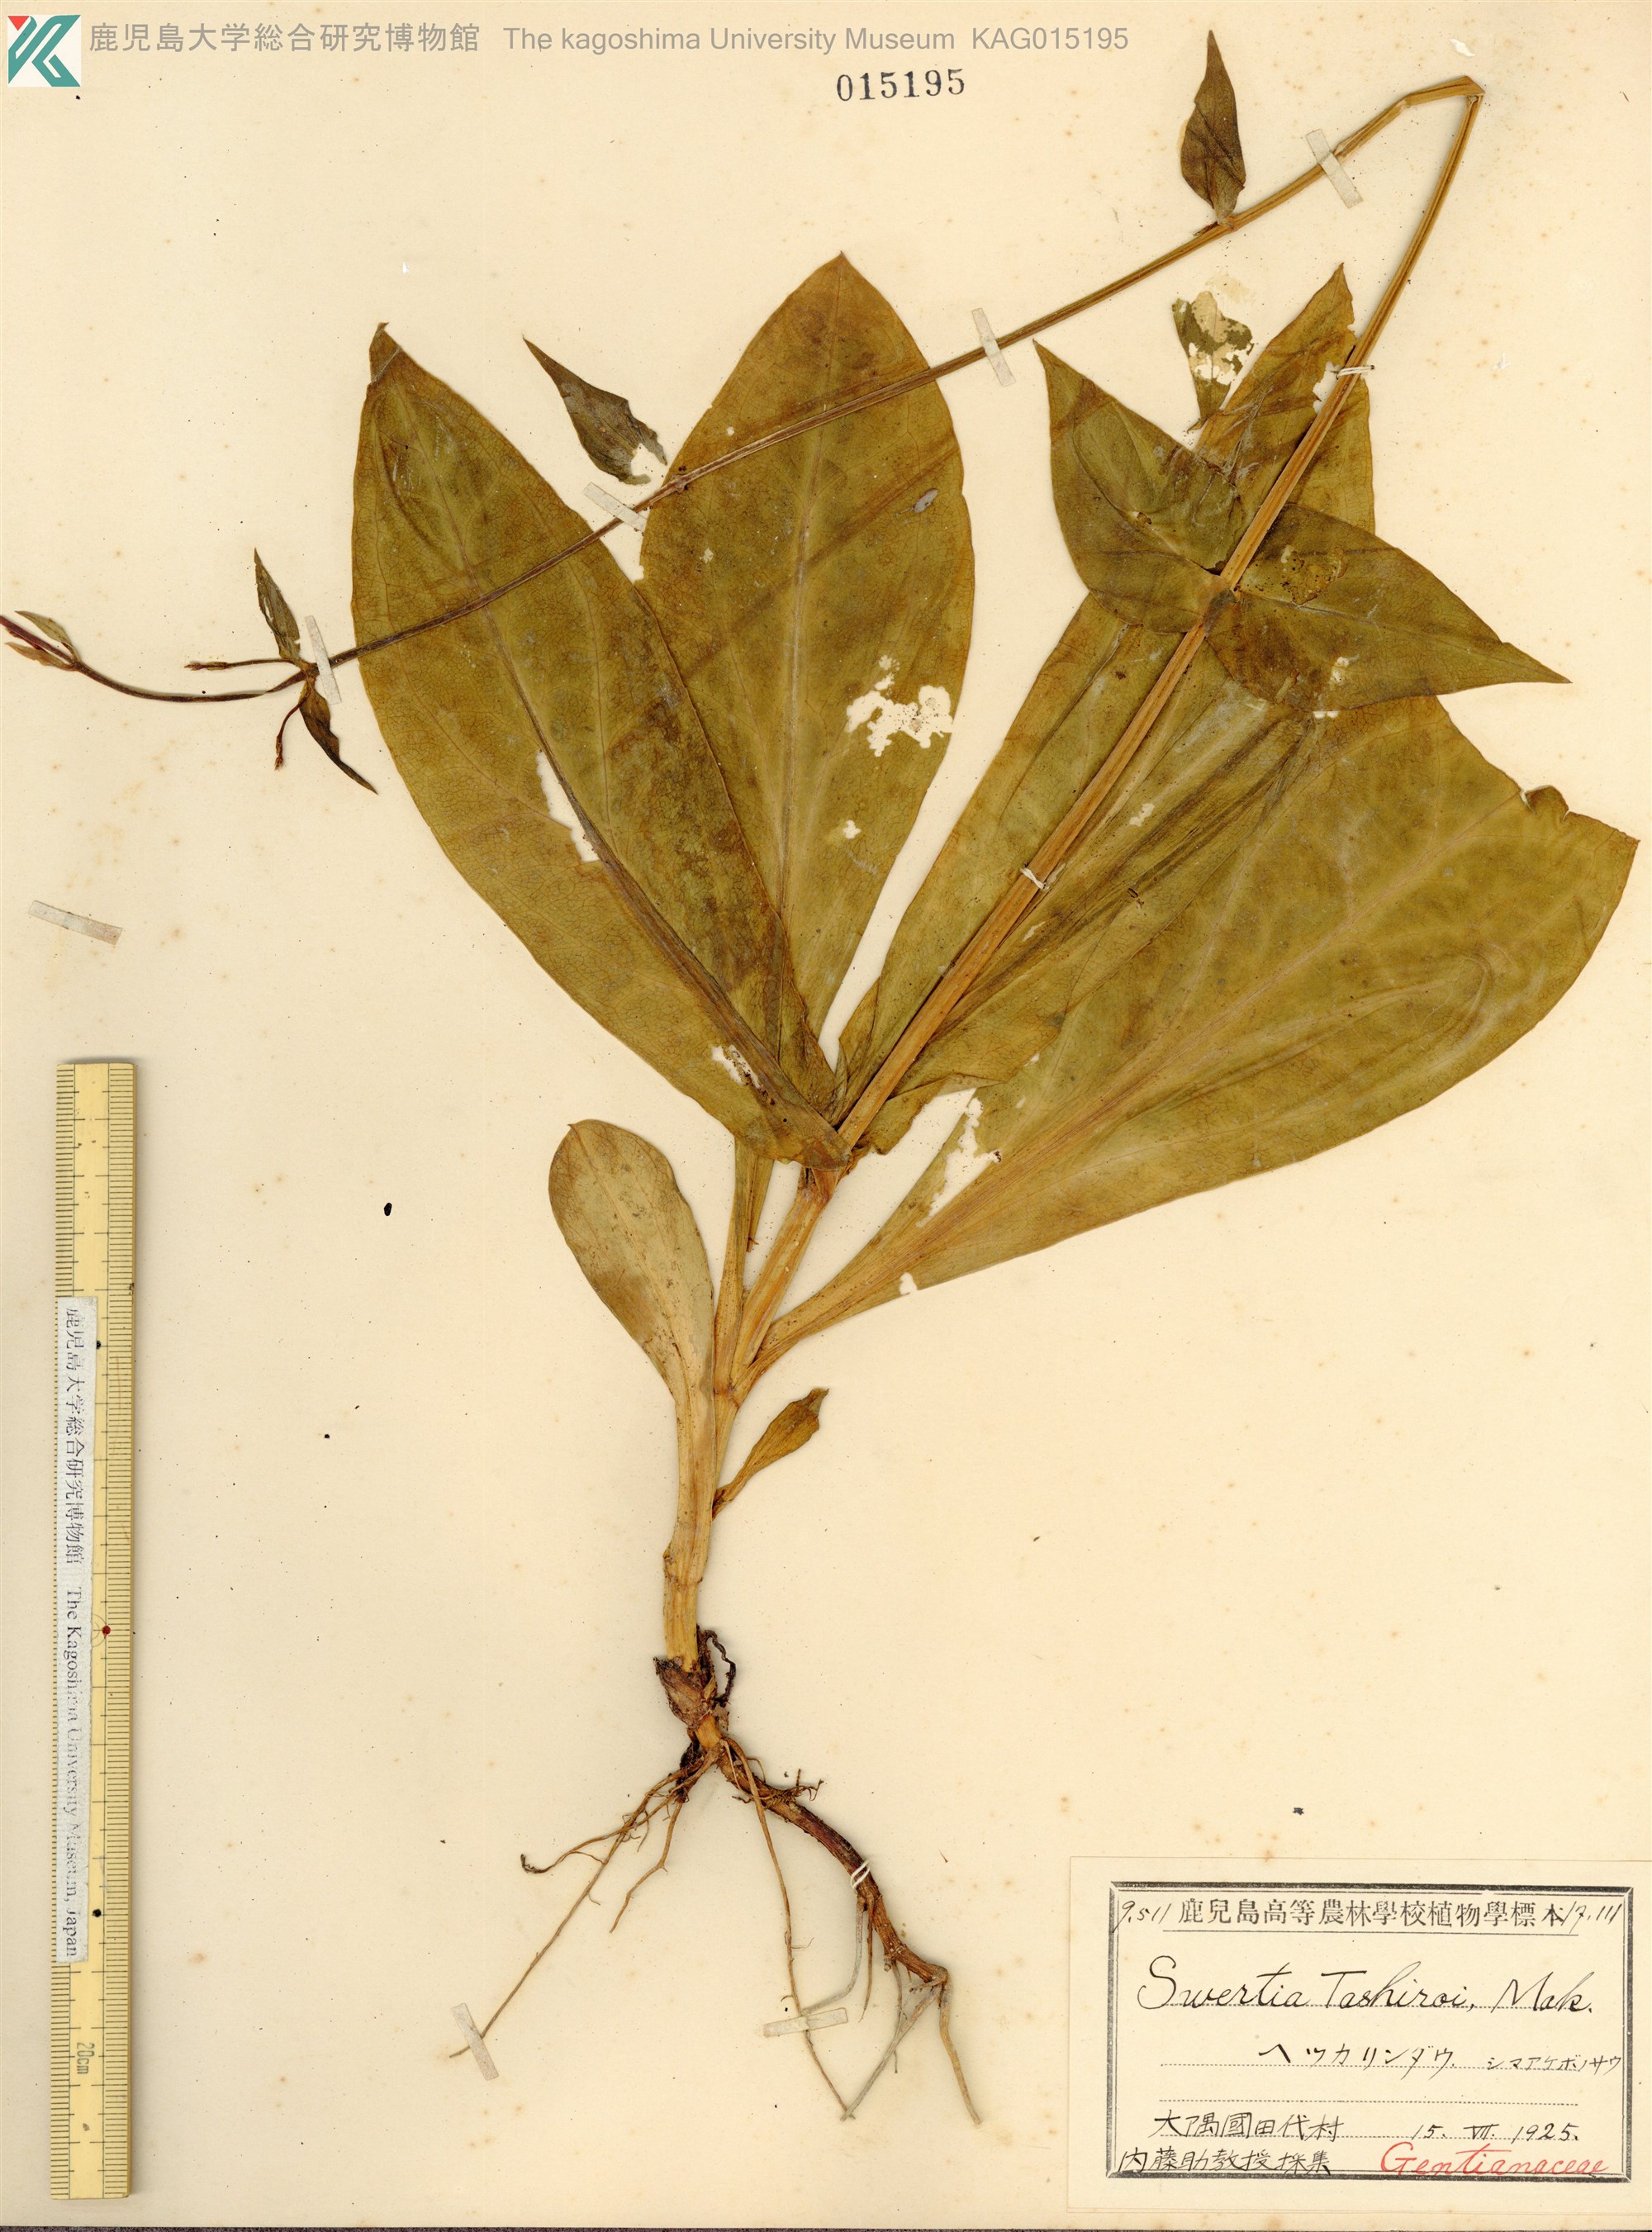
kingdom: Plantae
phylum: Tracheophyta
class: Magnoliopsida
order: Gentianales
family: Gentianaceae
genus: Swertia
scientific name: Swertia tashiroi
